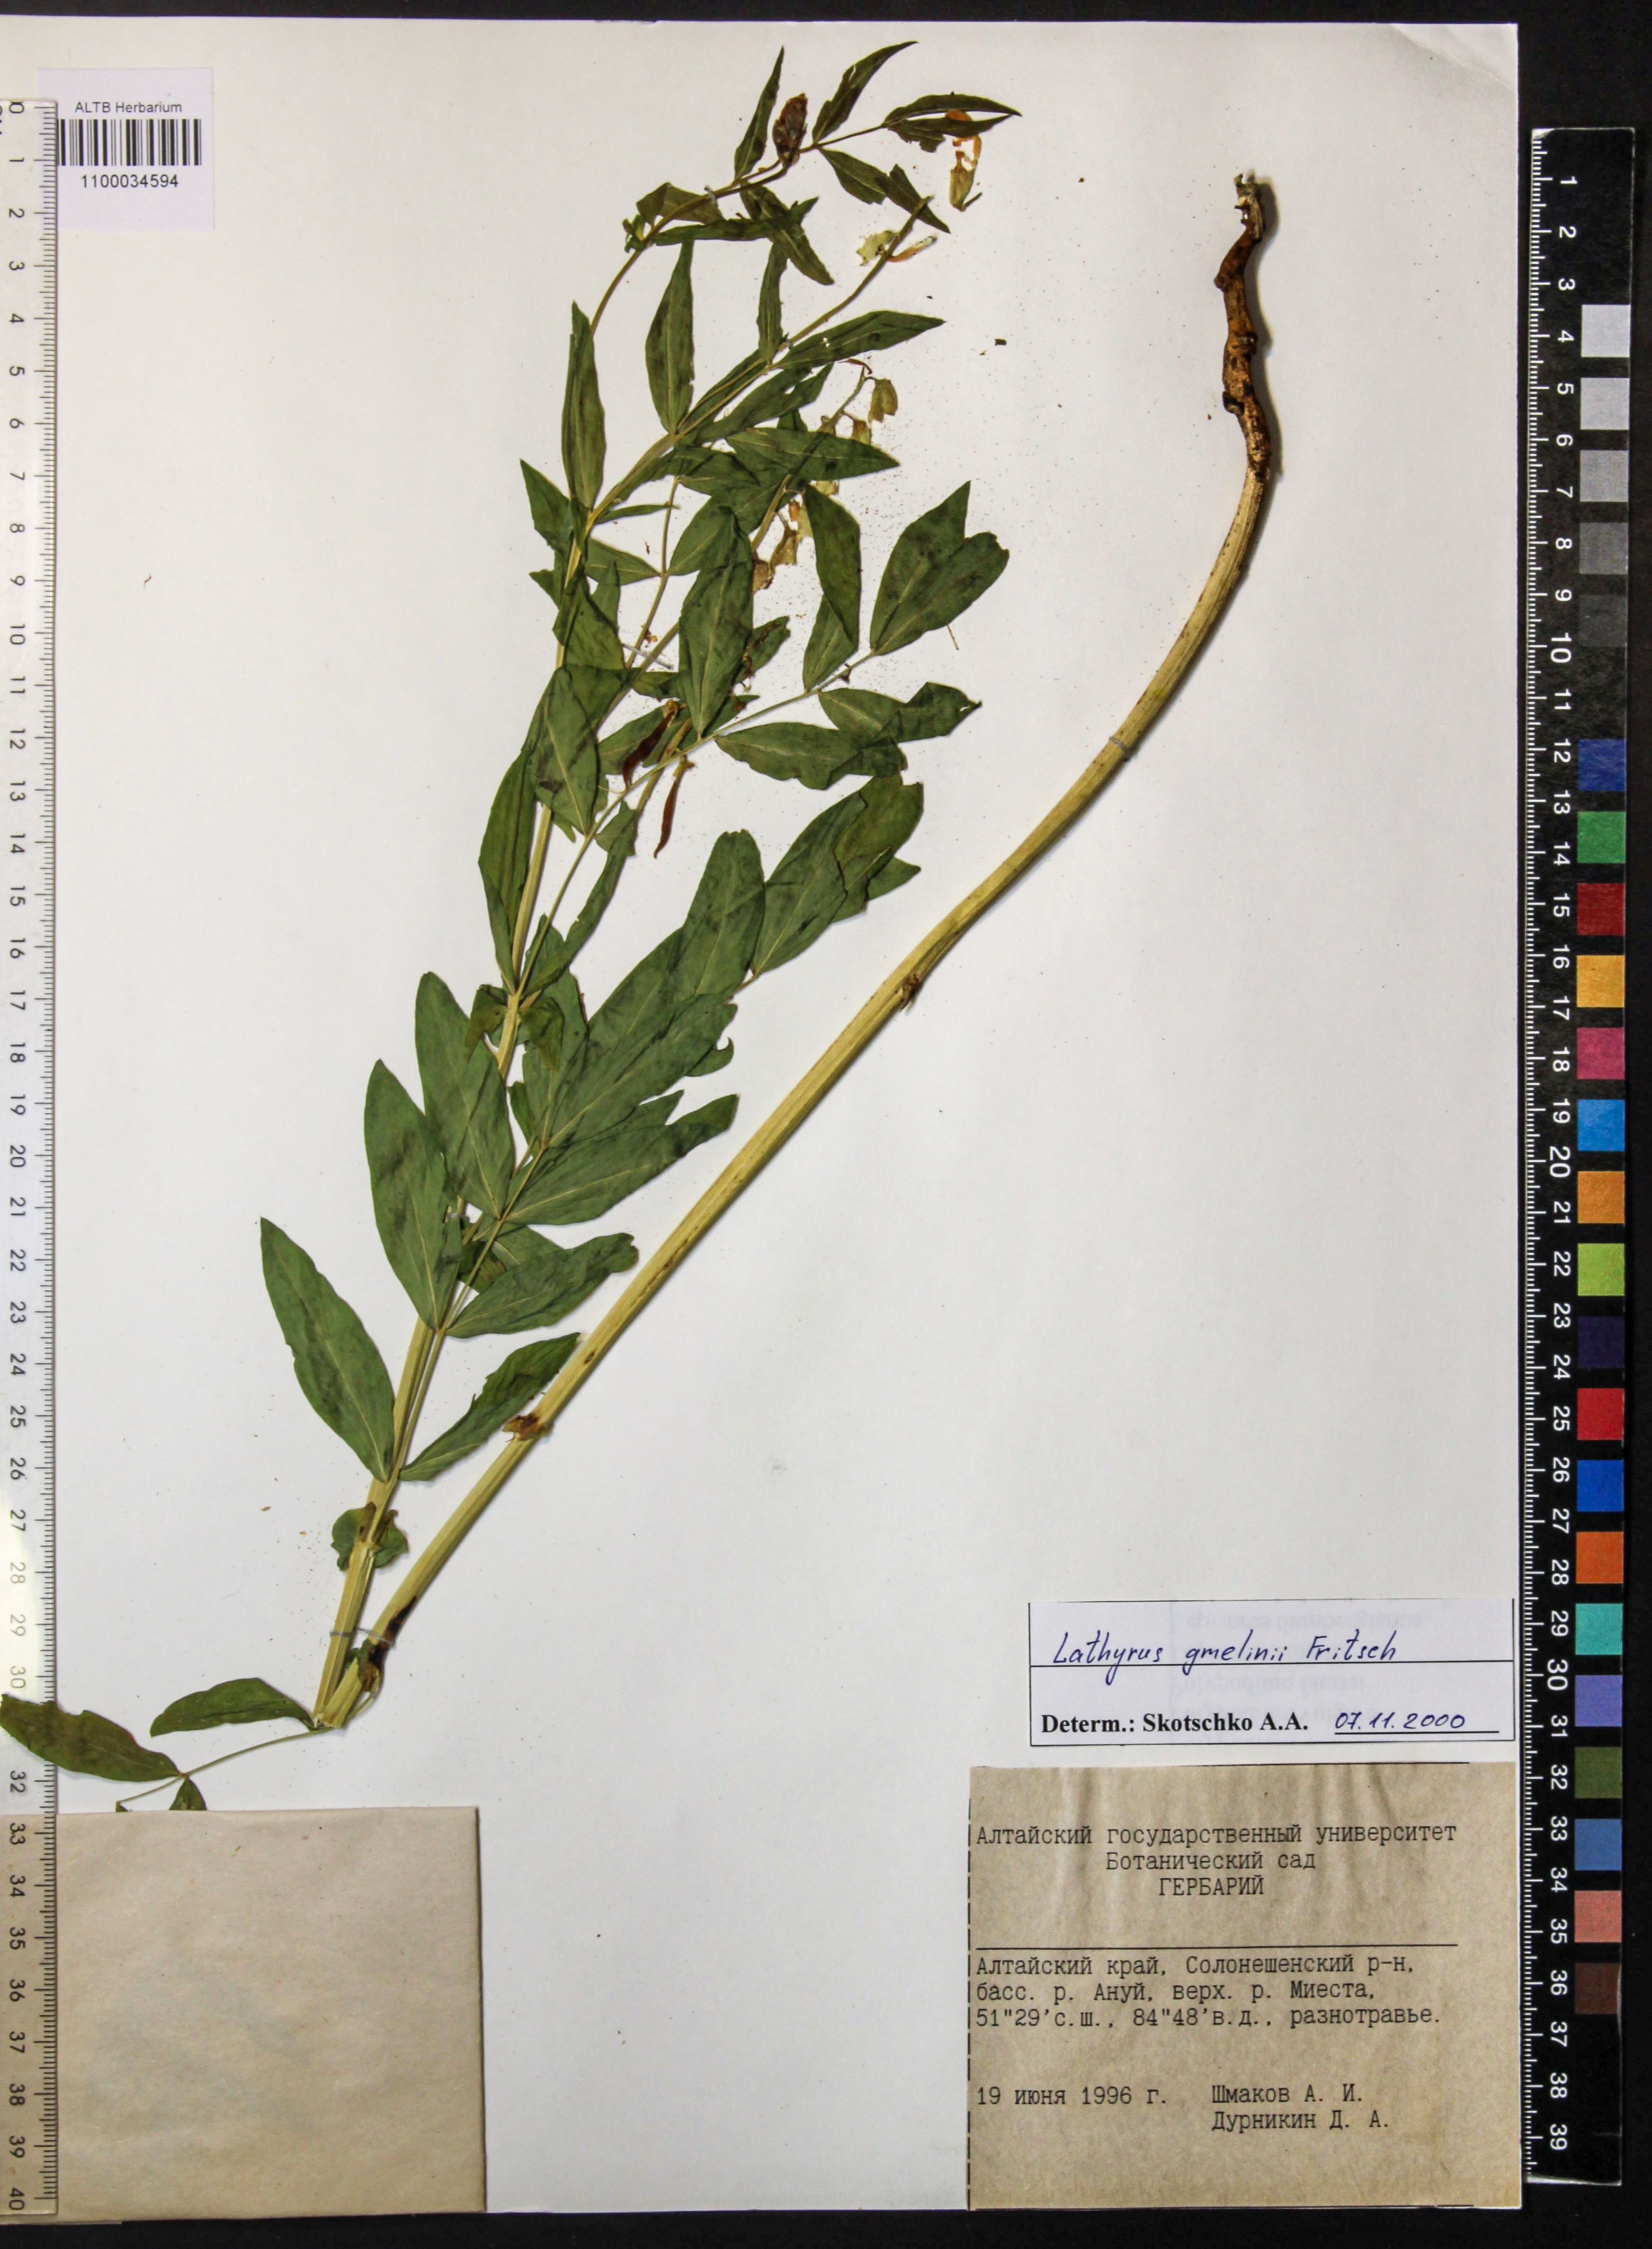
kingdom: Plantae
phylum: Tracheophyta
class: Magnoliopsida
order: Fabales
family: Fabaceae
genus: Lathyrus
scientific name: Lathyrus gmelinii
